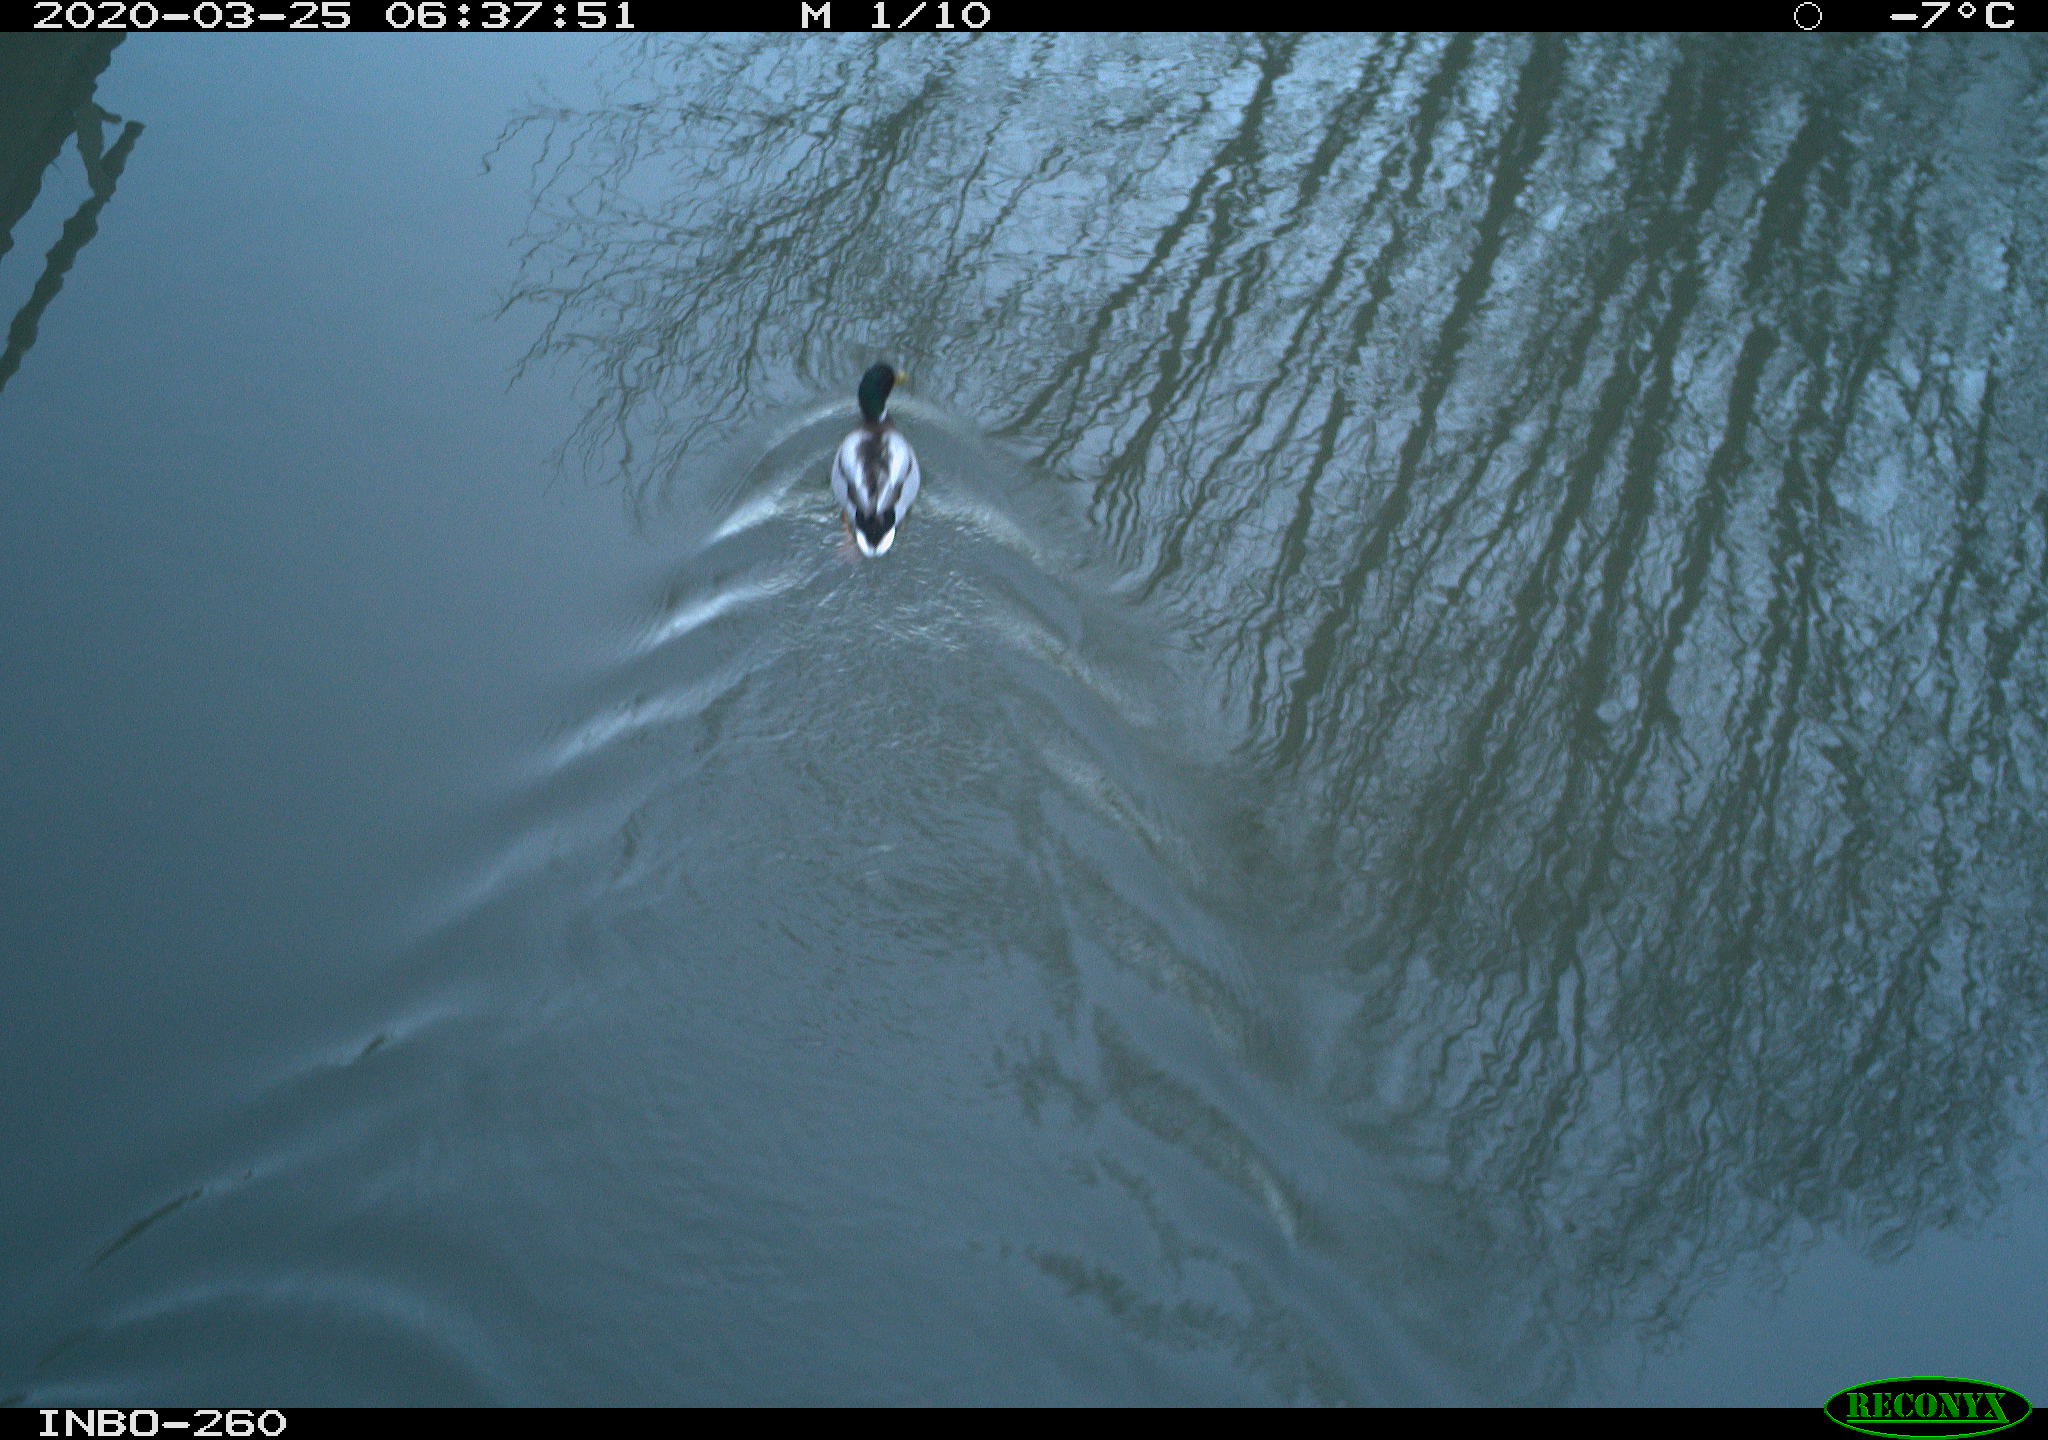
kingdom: Animalia
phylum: Chordata
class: Aves
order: Anseriformes
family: Anatidae
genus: Anas
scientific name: Anas platyrhynchos
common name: Mallard
